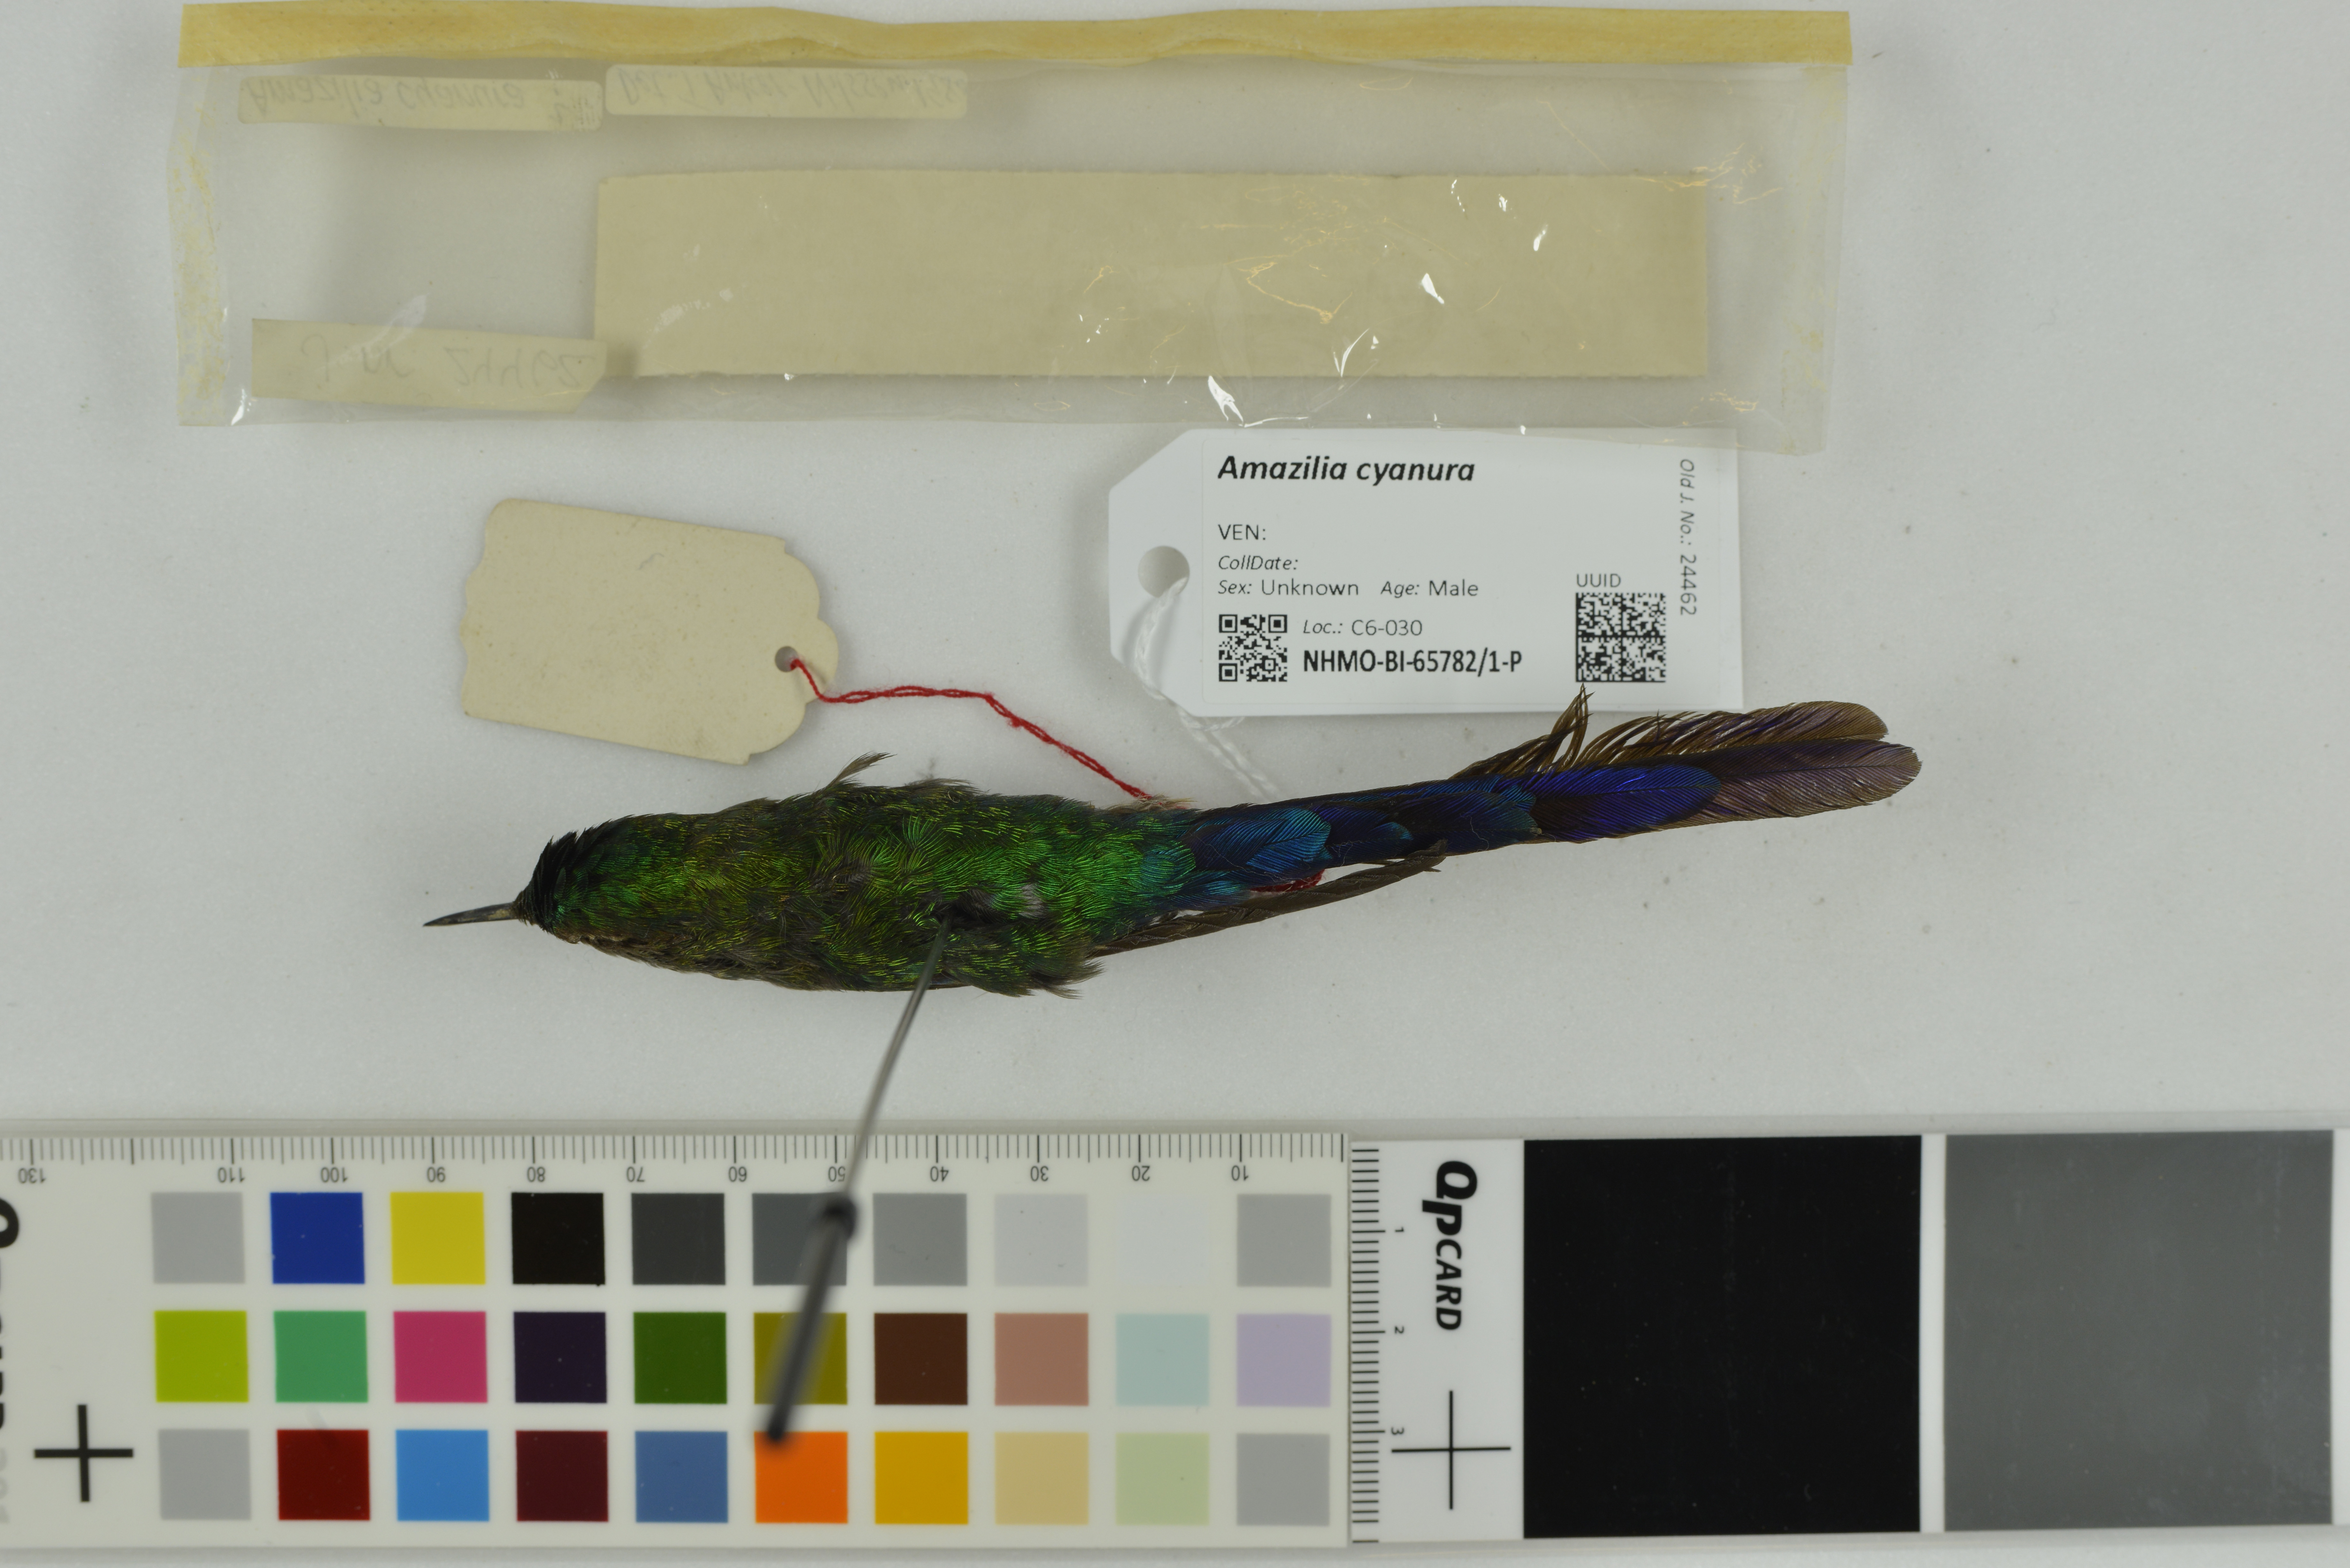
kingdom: Animalia
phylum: Chordata
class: Aves
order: Apodiformes
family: Trochilidae
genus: Saucerottia
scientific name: Saucerottia cyanura
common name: Blue-tailed hummingbird
